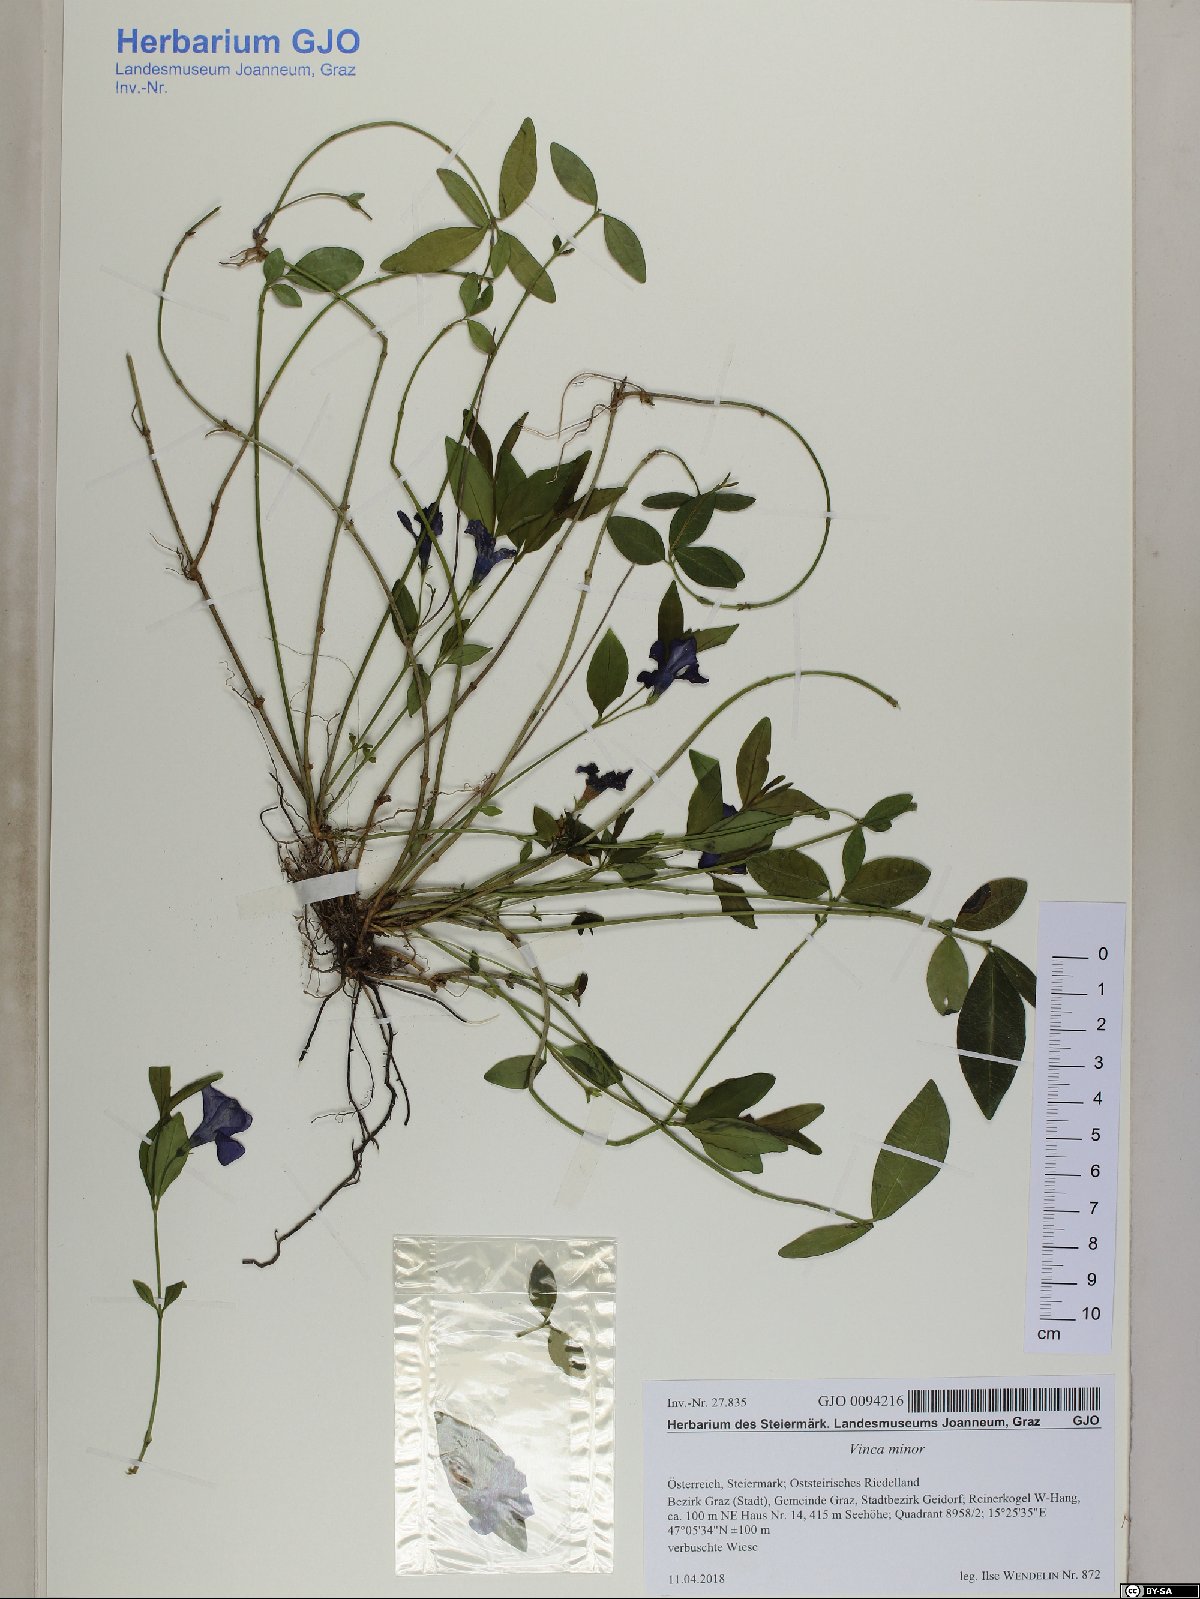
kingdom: Plantae
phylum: Tracheophyta
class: Magnoliopsida
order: Gentianales
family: Apocynaceae
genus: Vinca
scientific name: Vinca minor
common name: Lesser periwinkle
